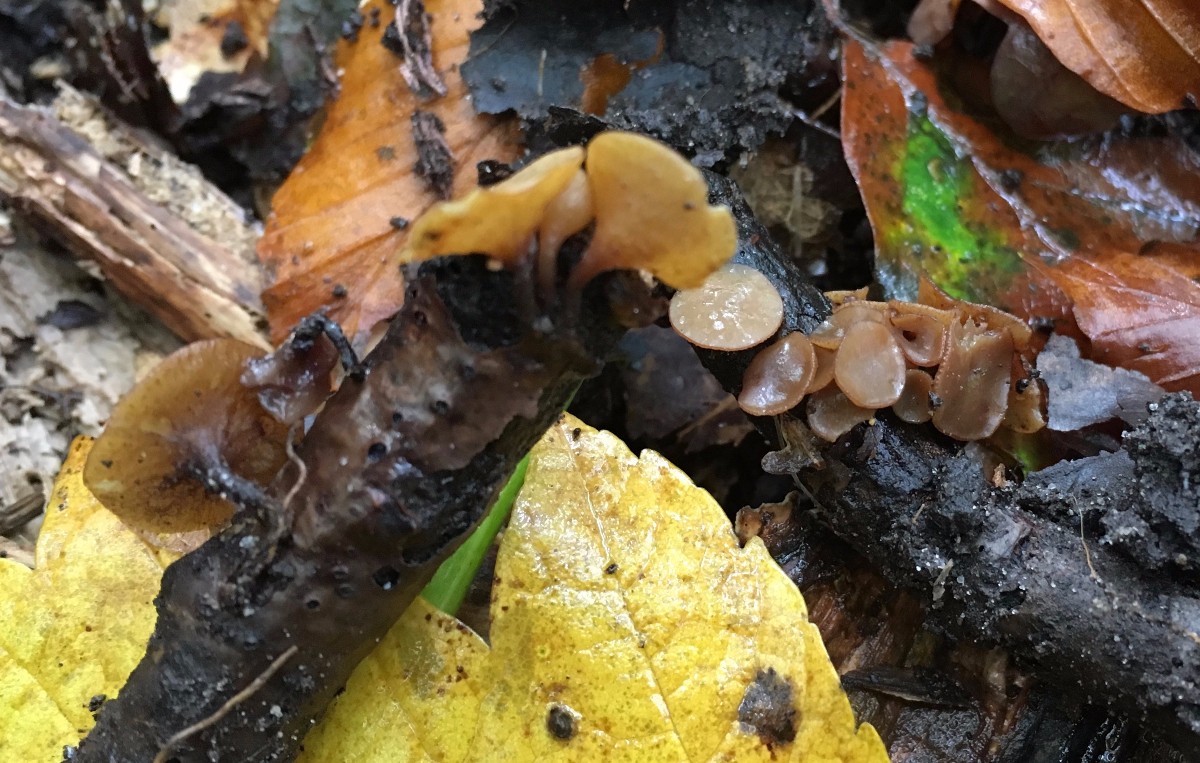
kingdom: Fungi
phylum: Ascomycota
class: Leotiomycetes
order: Helotiales
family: Rutstroemiaceae
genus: Rutstroemia
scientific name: Rutstroemia firma
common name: gren-brunskive
